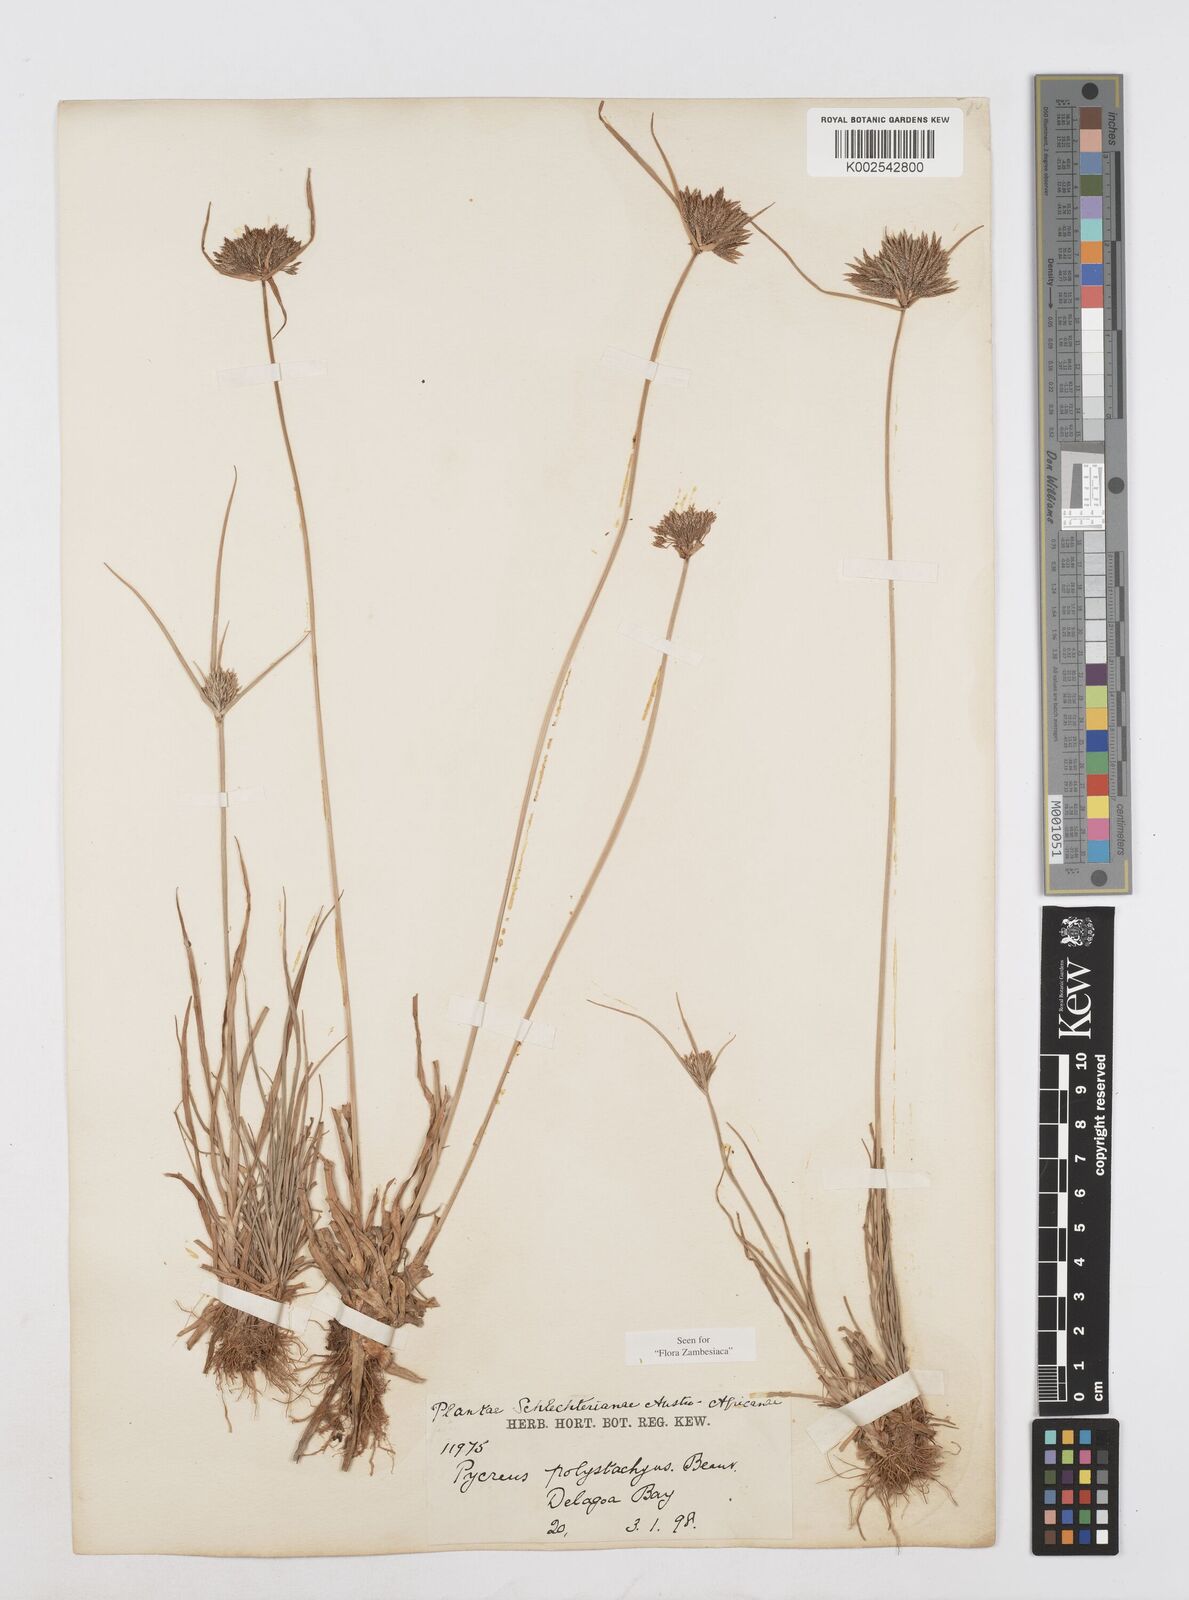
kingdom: Plantae
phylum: Tracheophyta
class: Liliopsida
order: Poales
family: Cyperaceae
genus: Cyperus
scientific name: Cyperus polystachyos
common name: Bunchy flat sedge
